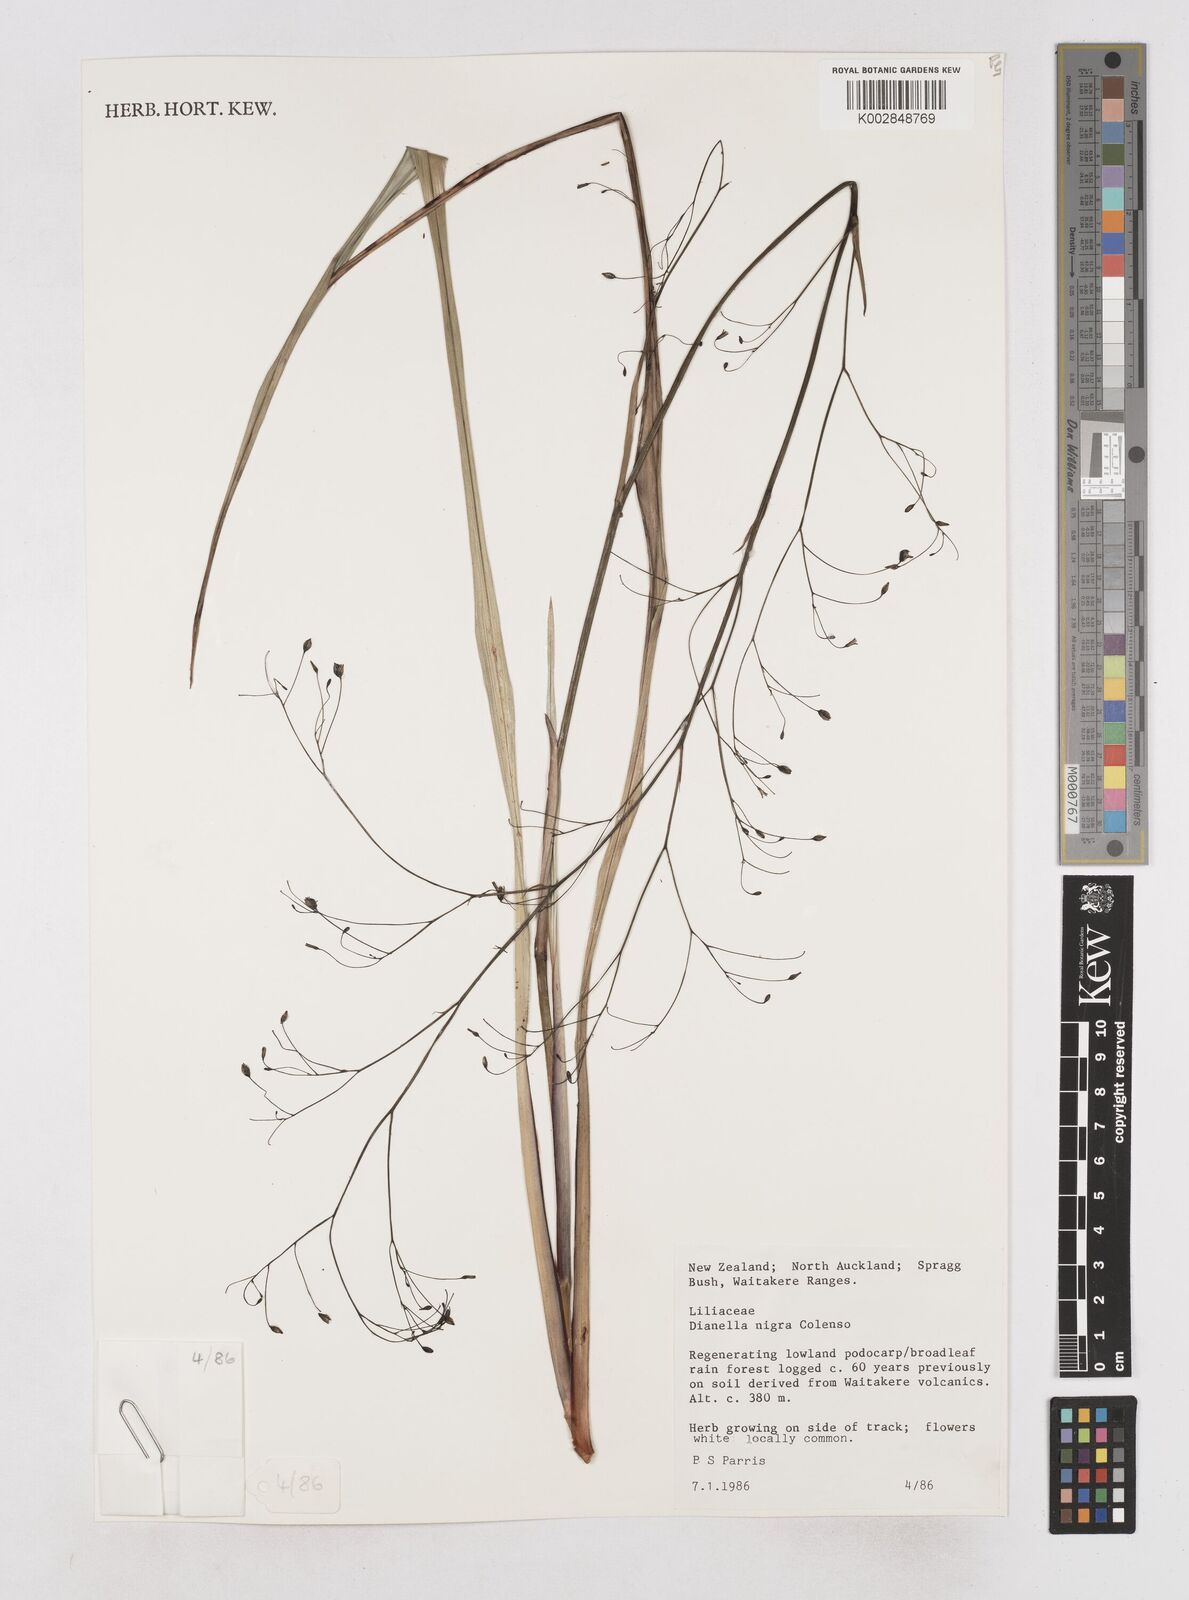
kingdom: Plantae
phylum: Tracheophyta
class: Liliopsida
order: Asparagales
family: Asphodelaceae
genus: Dianella
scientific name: Dianella nigra
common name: New zealand-blueberry
